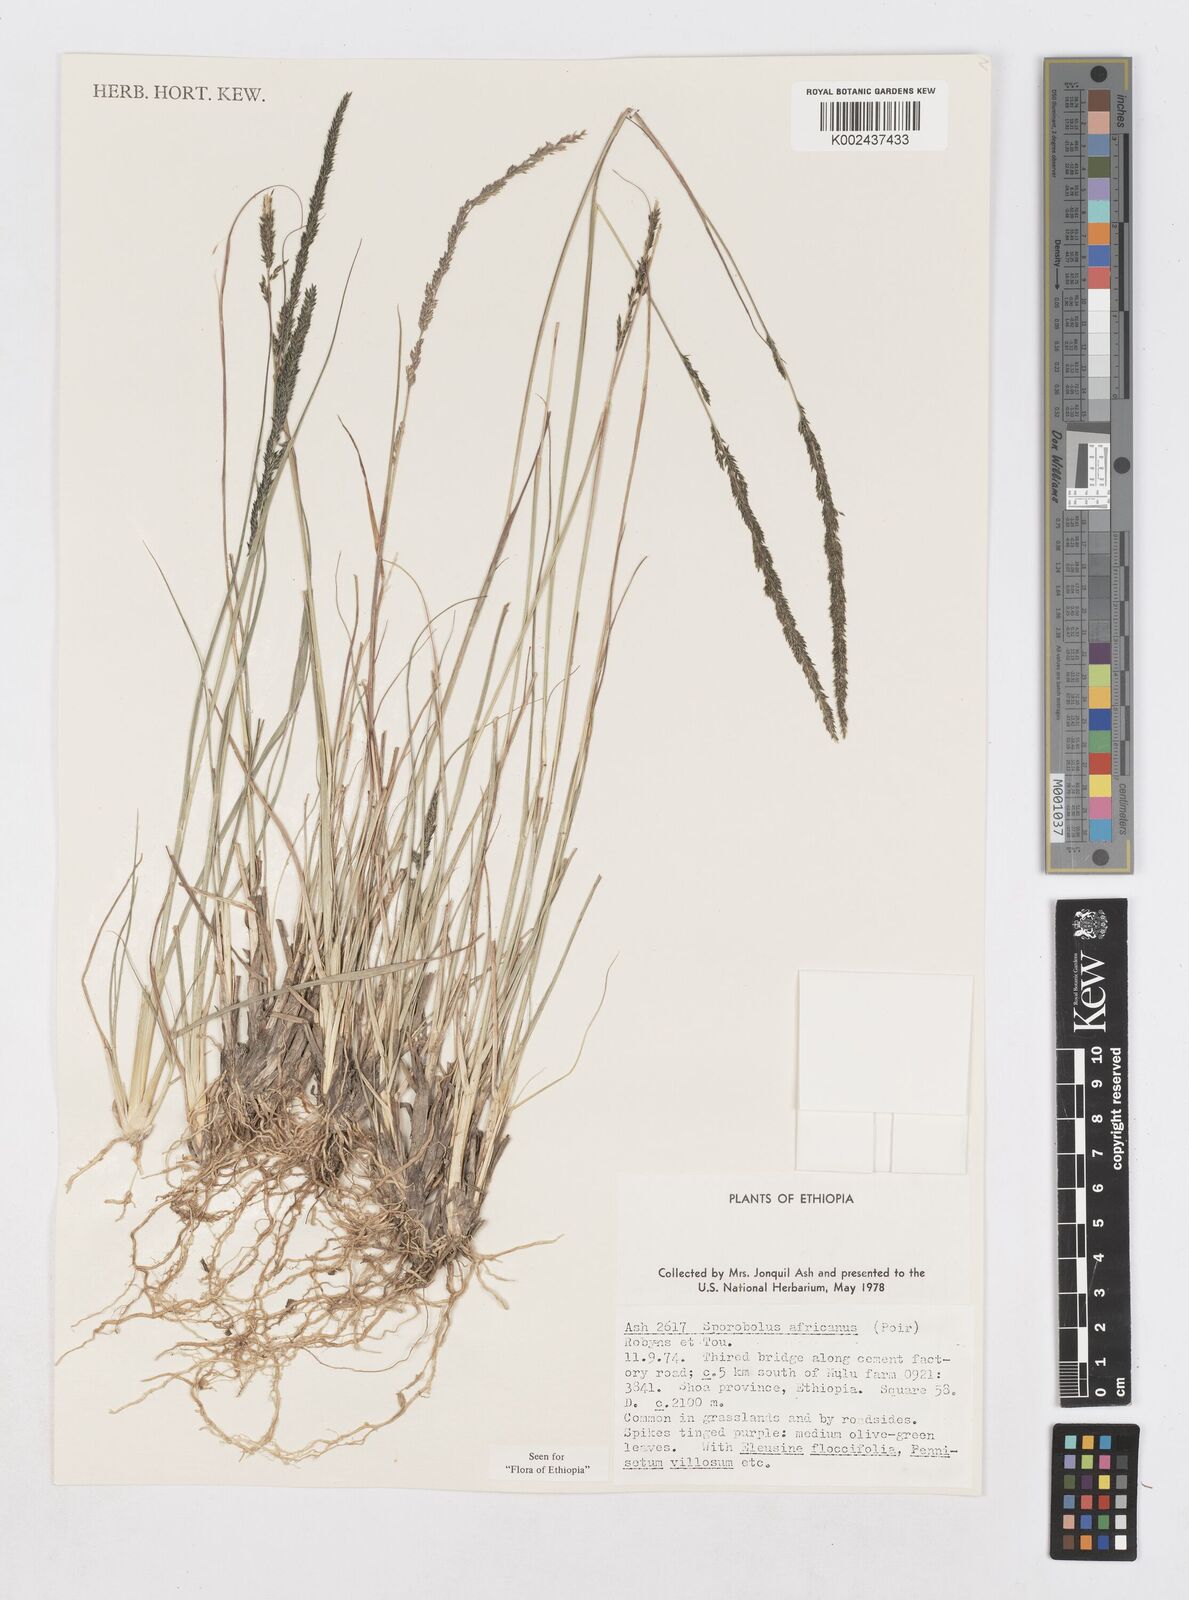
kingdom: Plantae
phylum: Tracheophyta
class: Liliopsida
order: Poales
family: Poaceae
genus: Sporobolus
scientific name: Sporobolus africanus
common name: African dropseed
